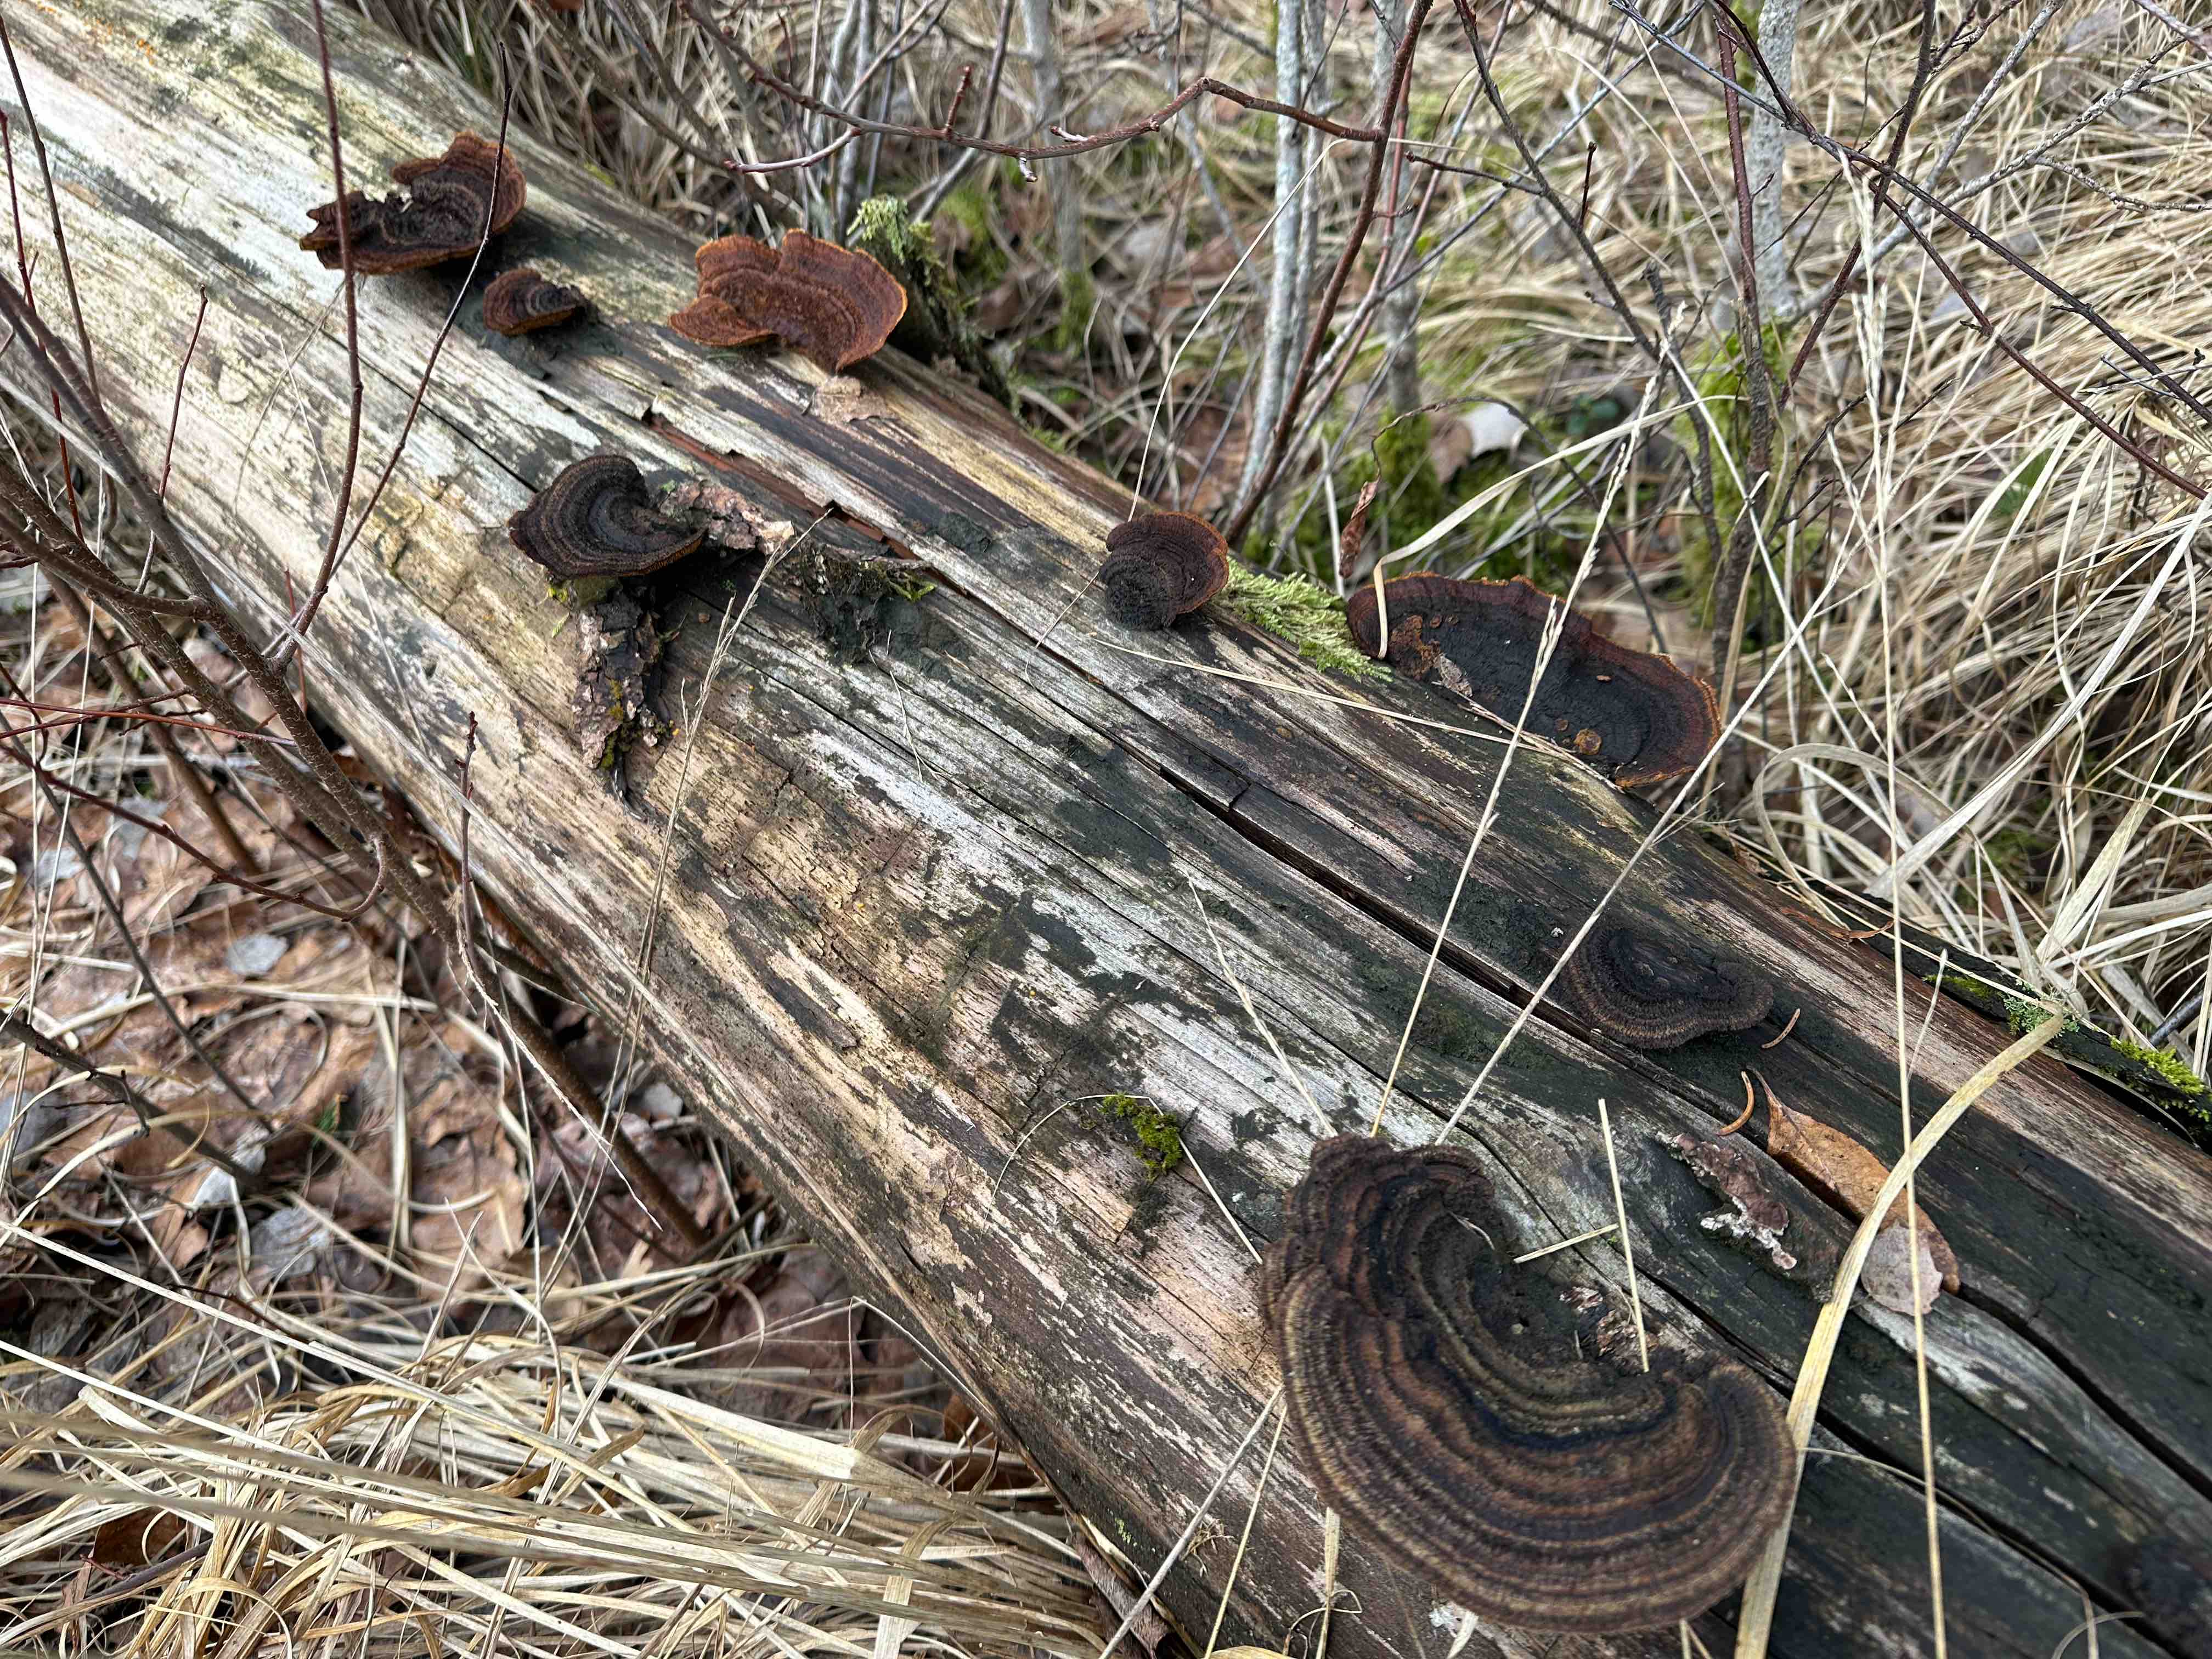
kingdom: Fungi
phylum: Basidiomycota
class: Agaricomycetes
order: Gloeophyllales
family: Gloeophyllaceae
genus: Gloeophyllum
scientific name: Gloeophyllum sepiarium
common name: fyrre-korkhat
